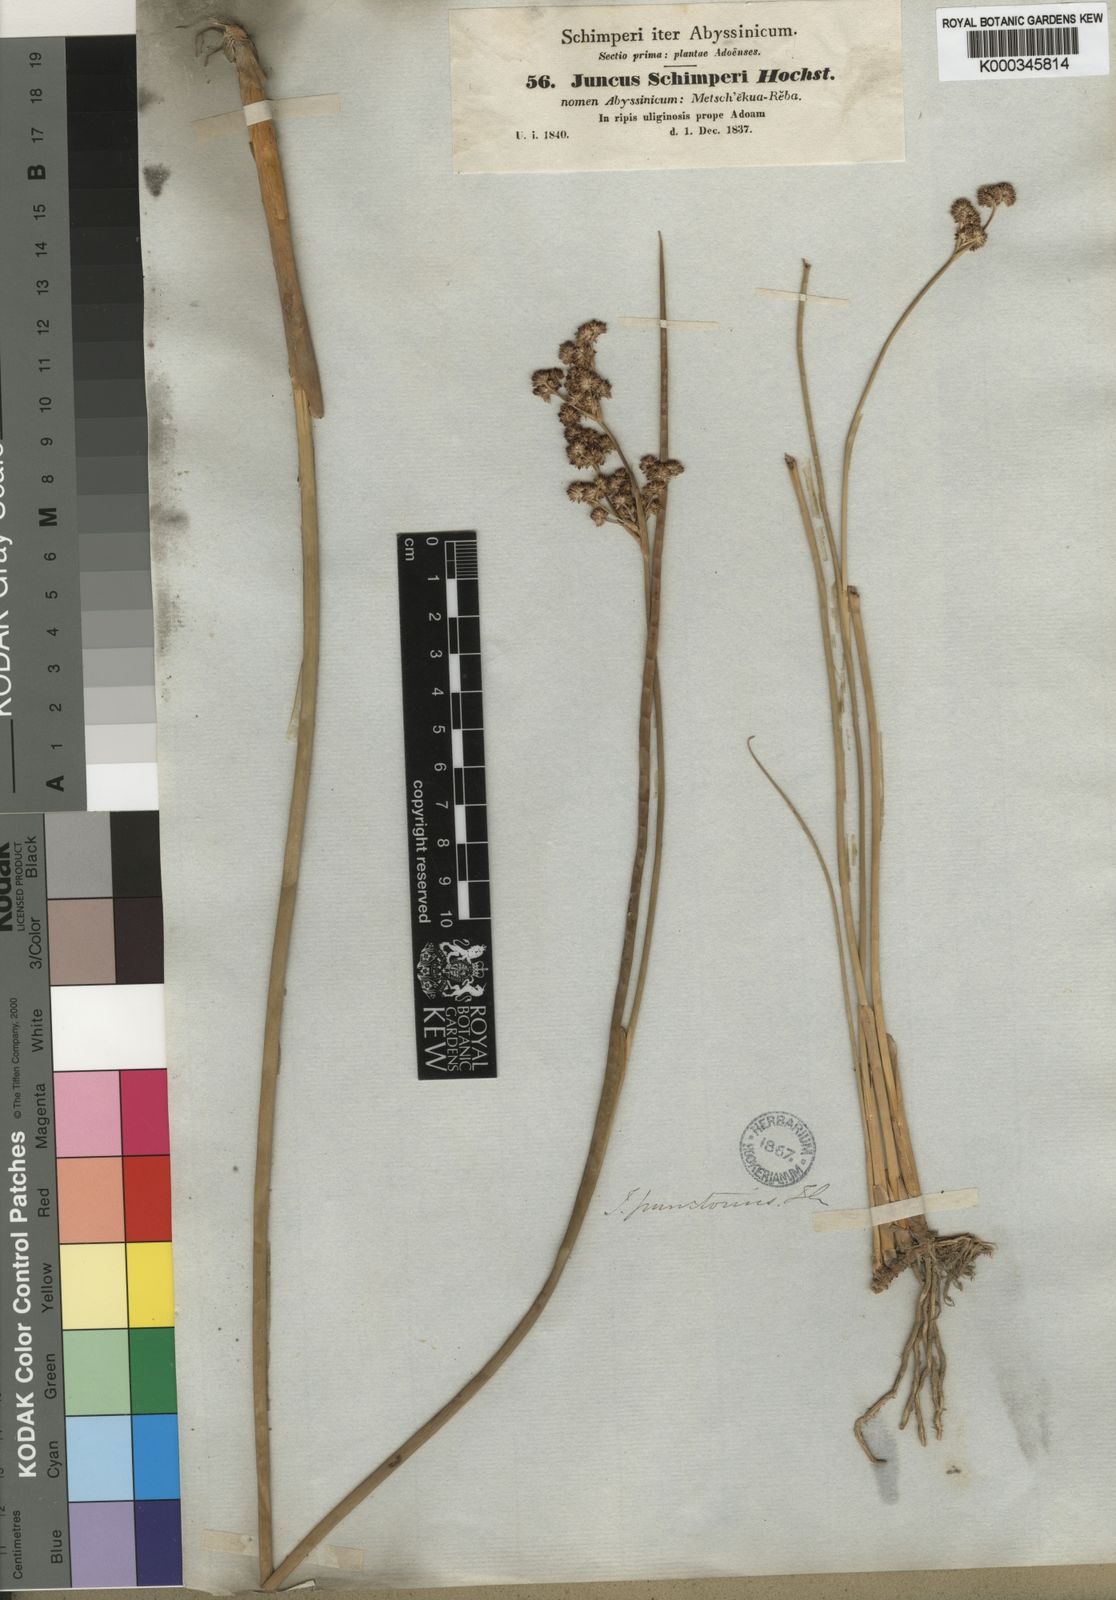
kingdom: Plantae
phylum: Tracheophyta
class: Liliopsida
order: Poales
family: Juncaceae
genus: Juncus
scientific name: Juncus punctorius
